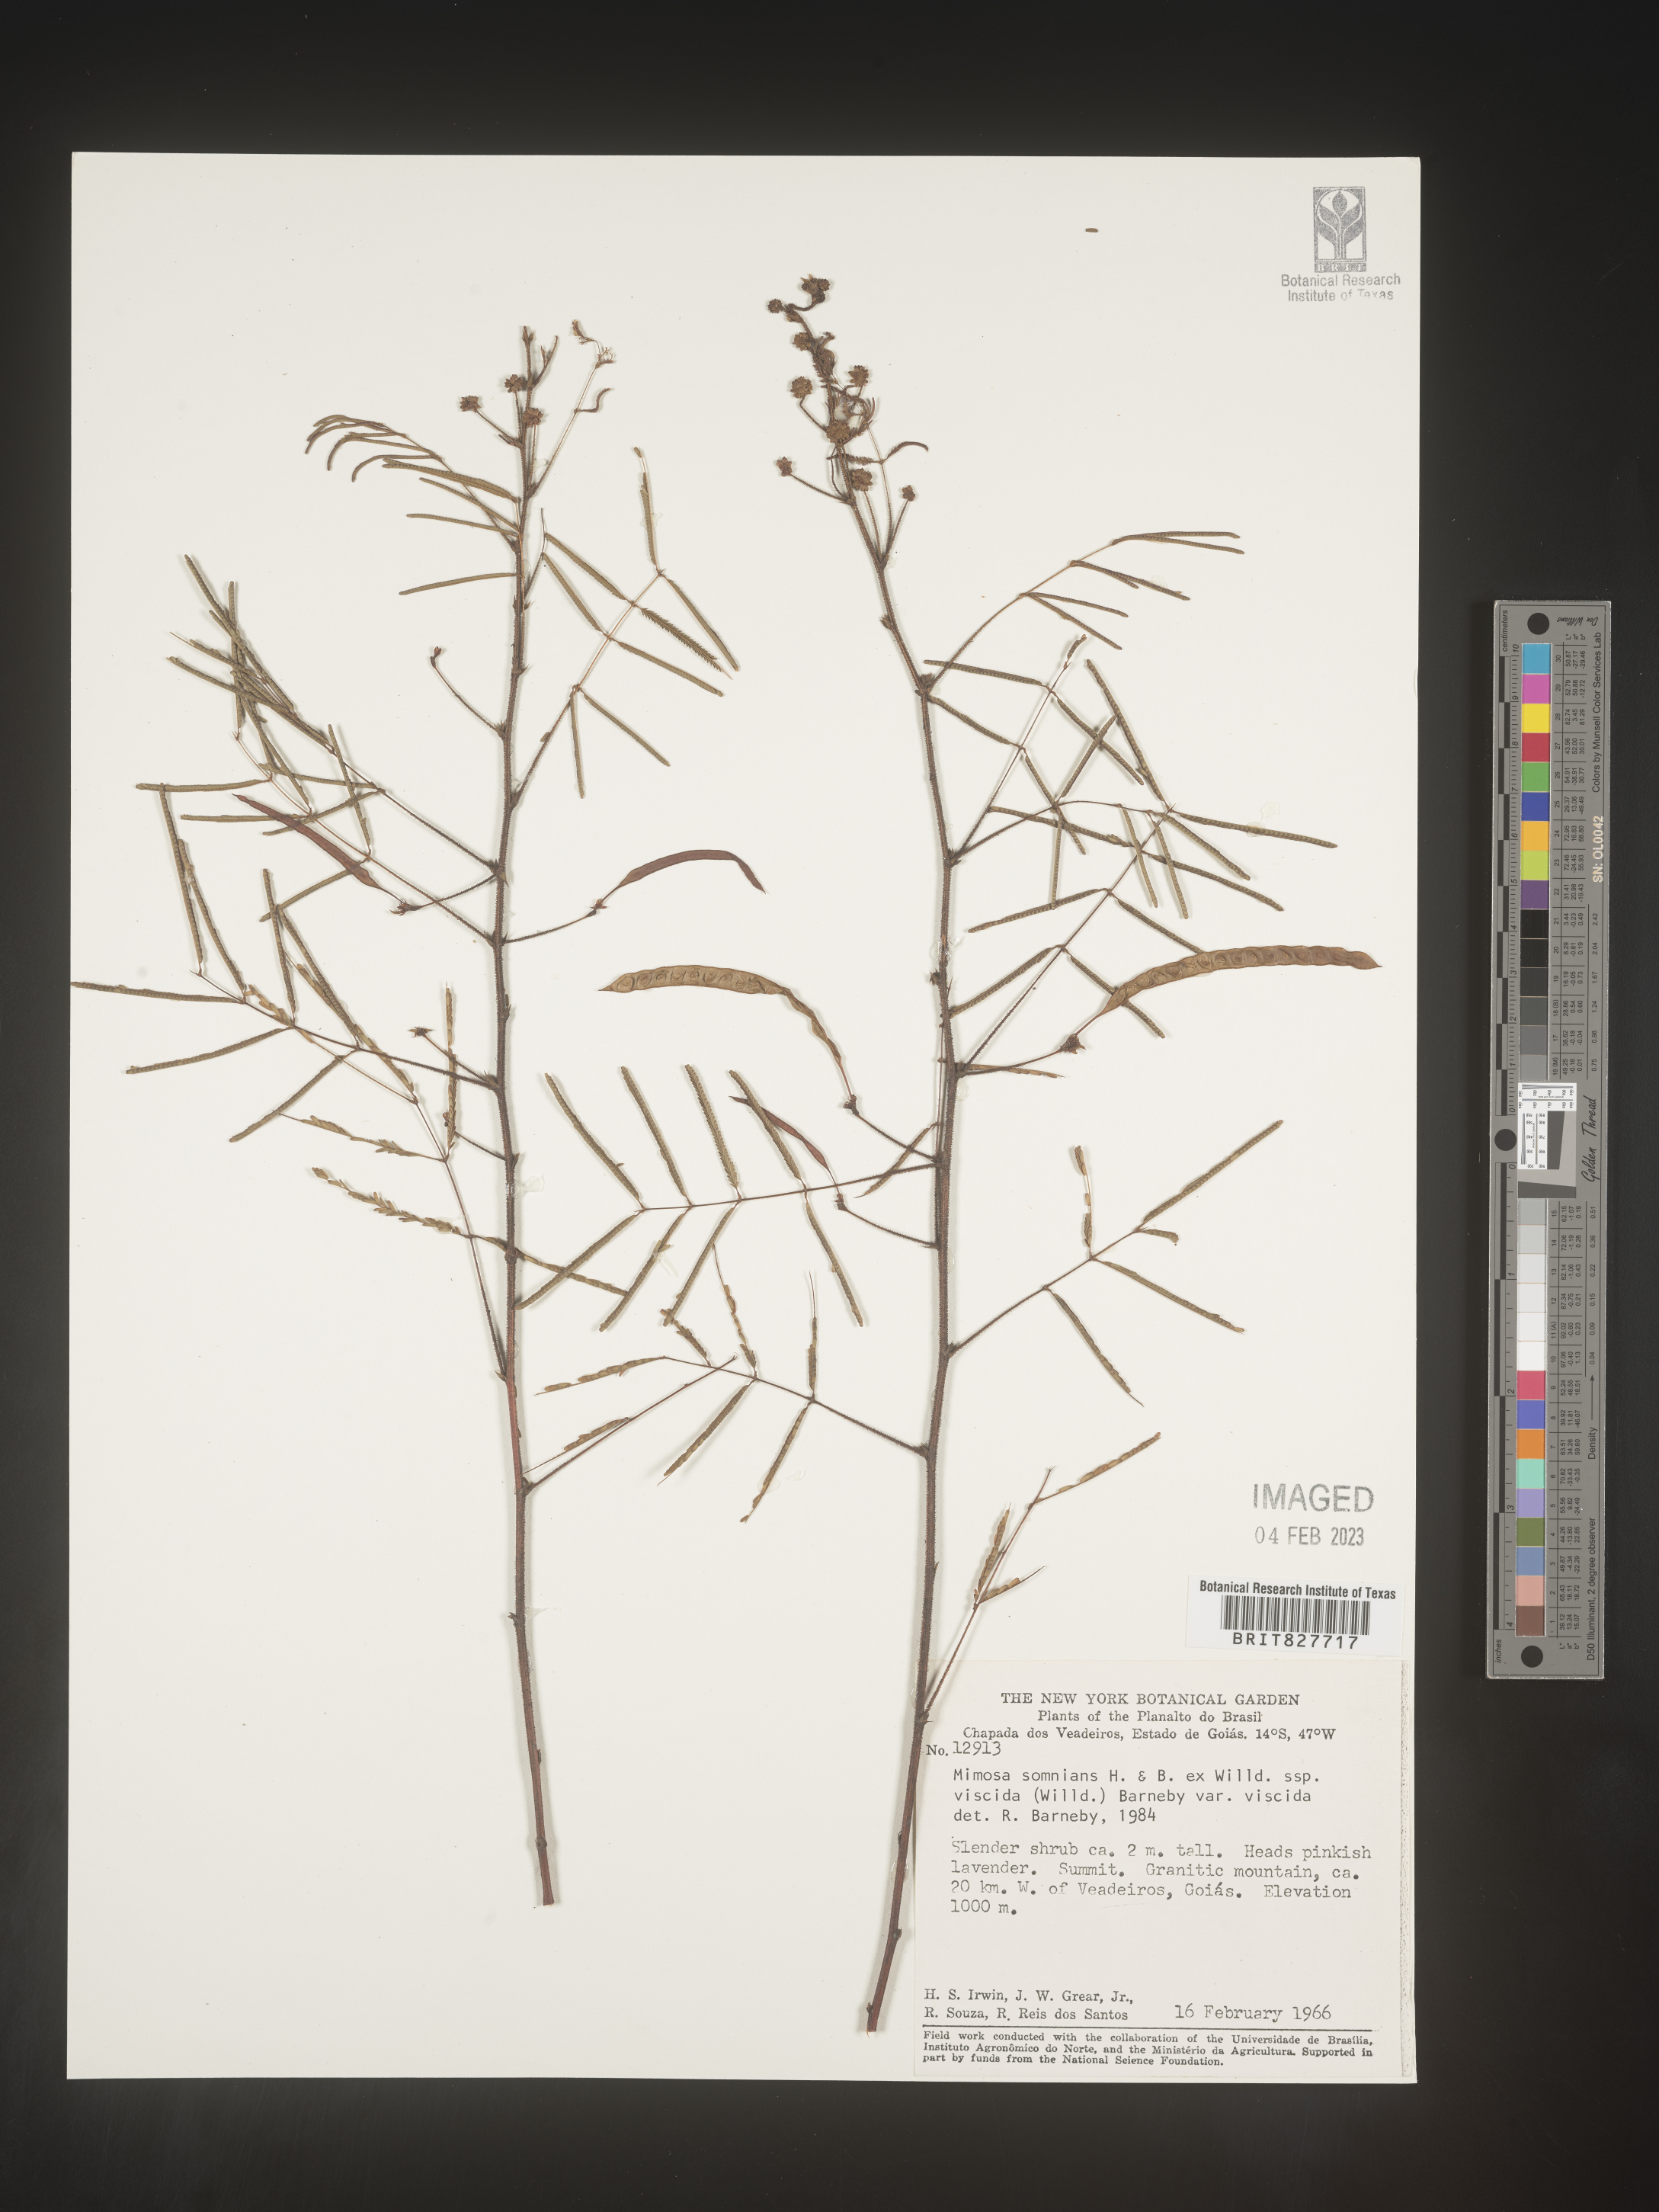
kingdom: Plantae
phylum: Tracheophyta
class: Magnoliopsida
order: Fabales
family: Fabaceae
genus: Mimosa
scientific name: Mimosa
